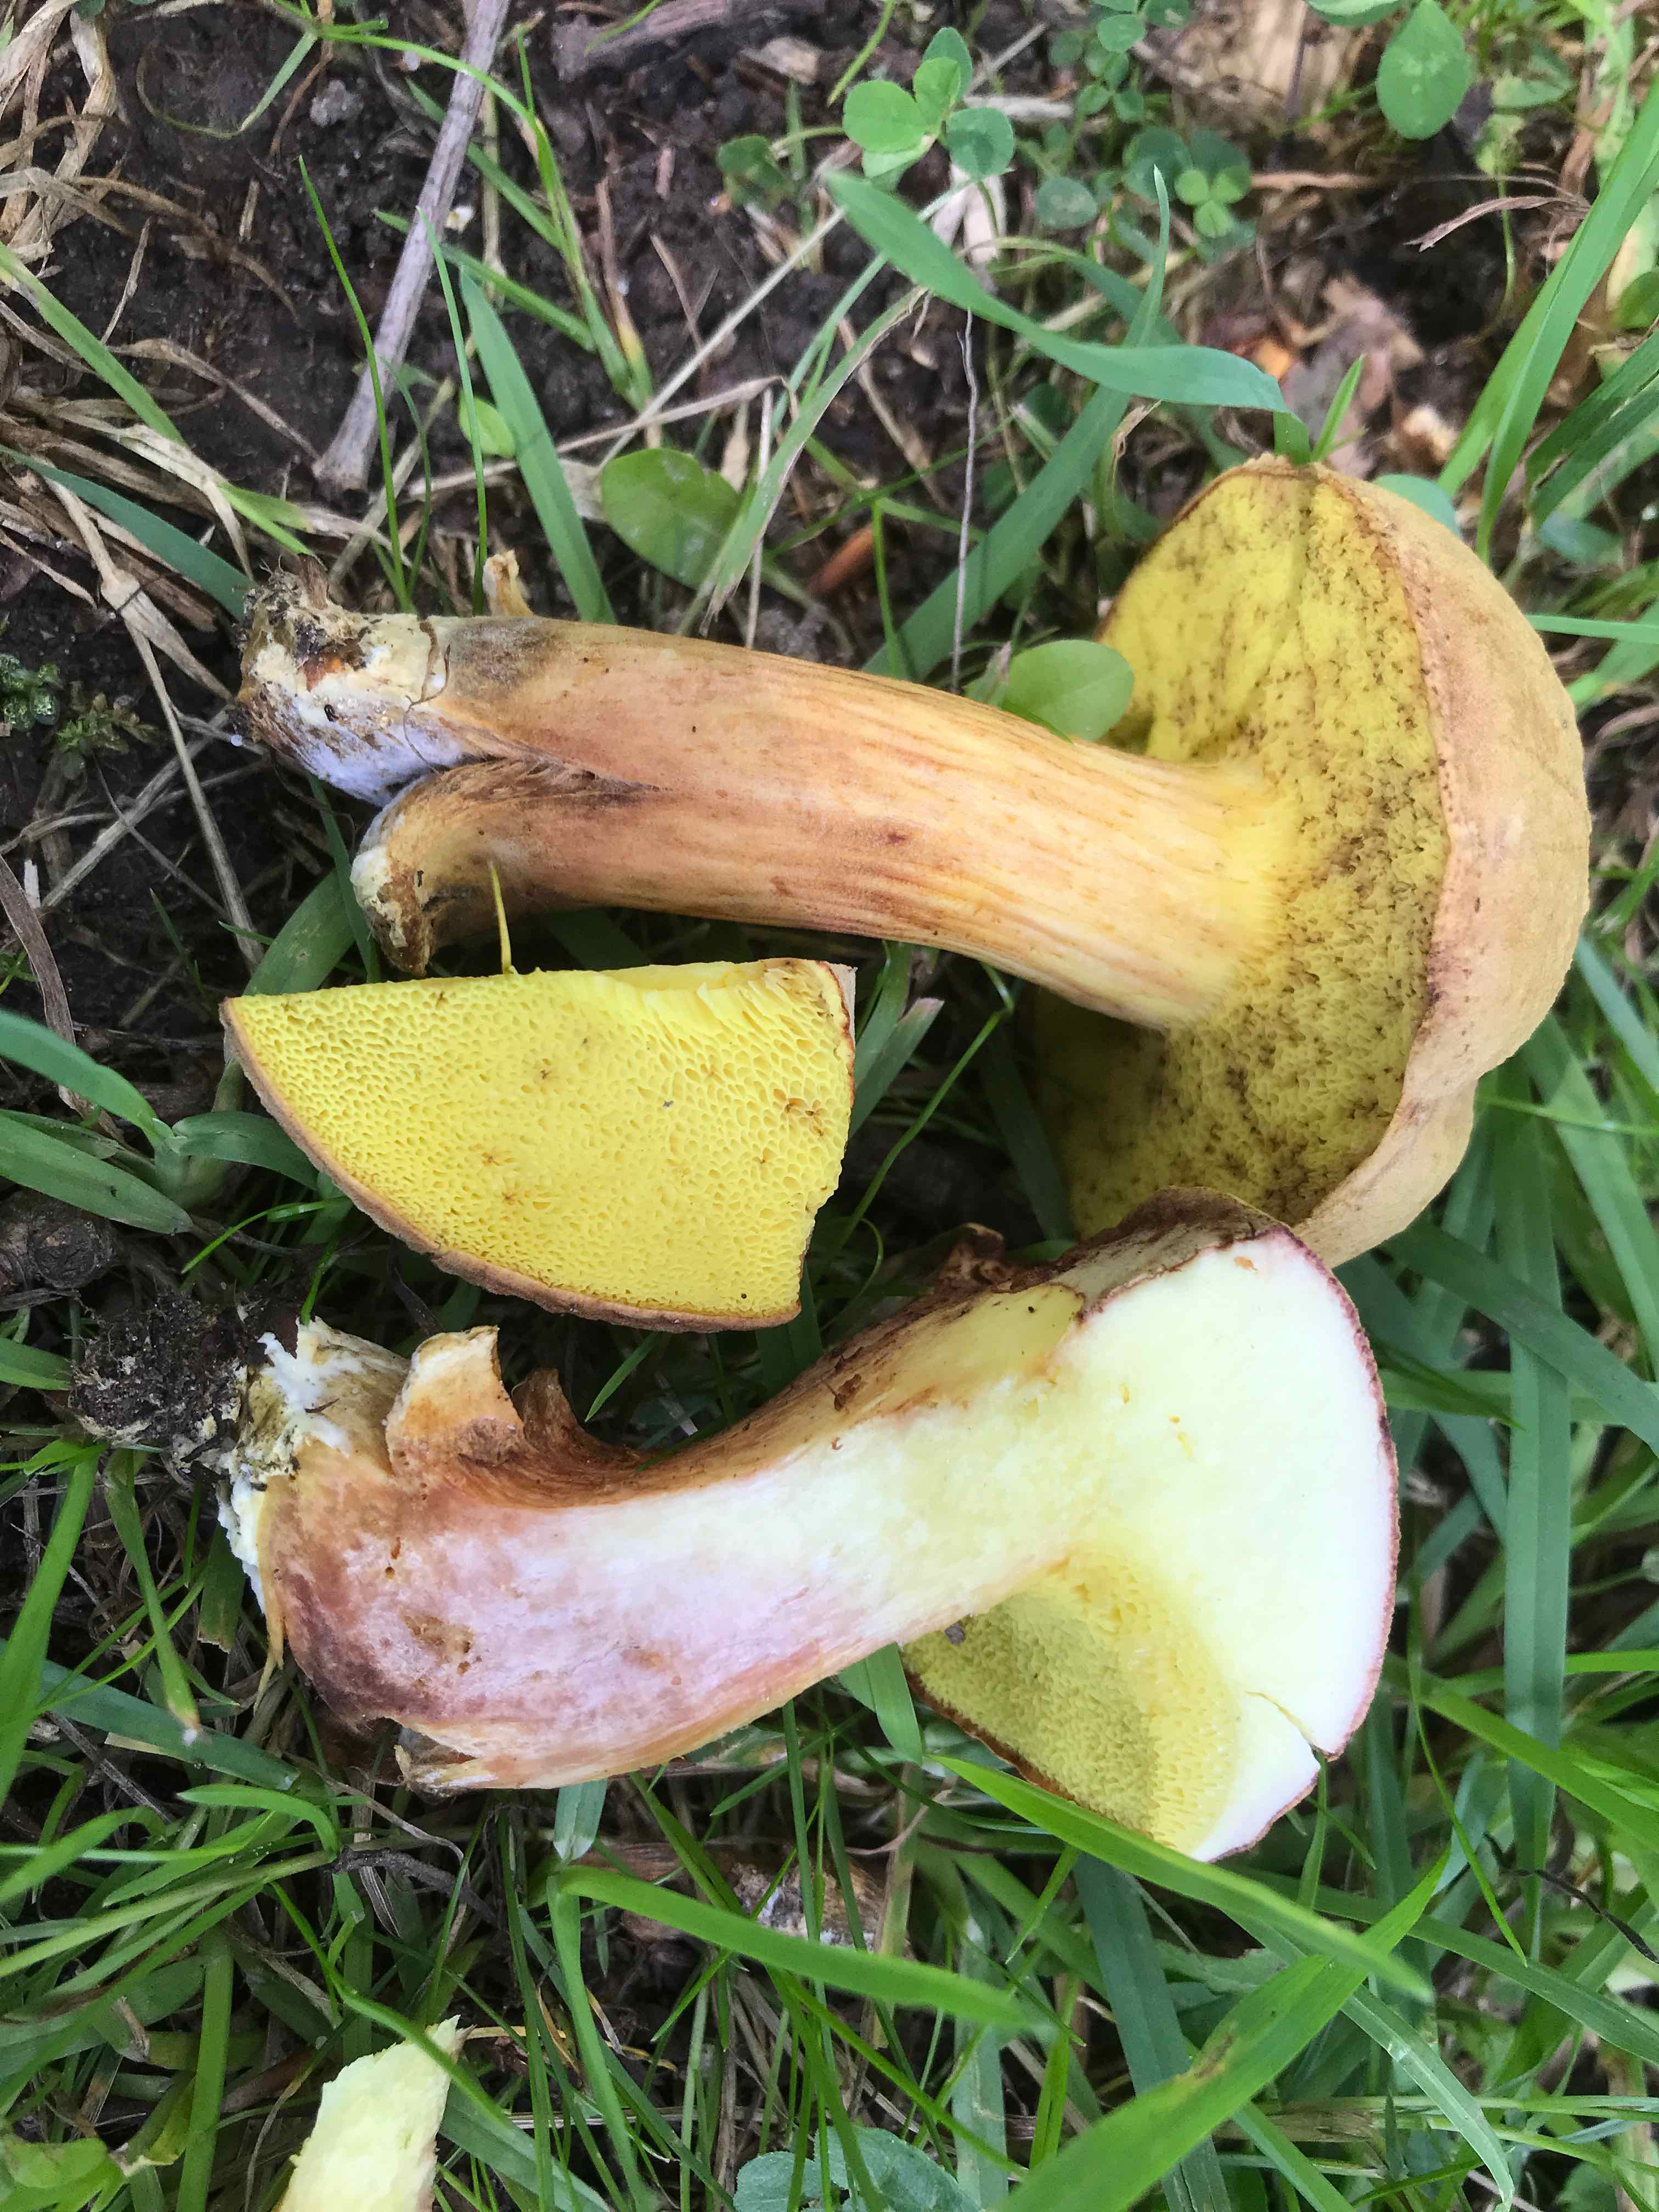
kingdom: Fungi
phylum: Basidiomycota
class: Agaricomycetes
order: Boletales
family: Boletaceae
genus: Xerocomus
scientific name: Xerocomus subtomentosus
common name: filtet rørhat
